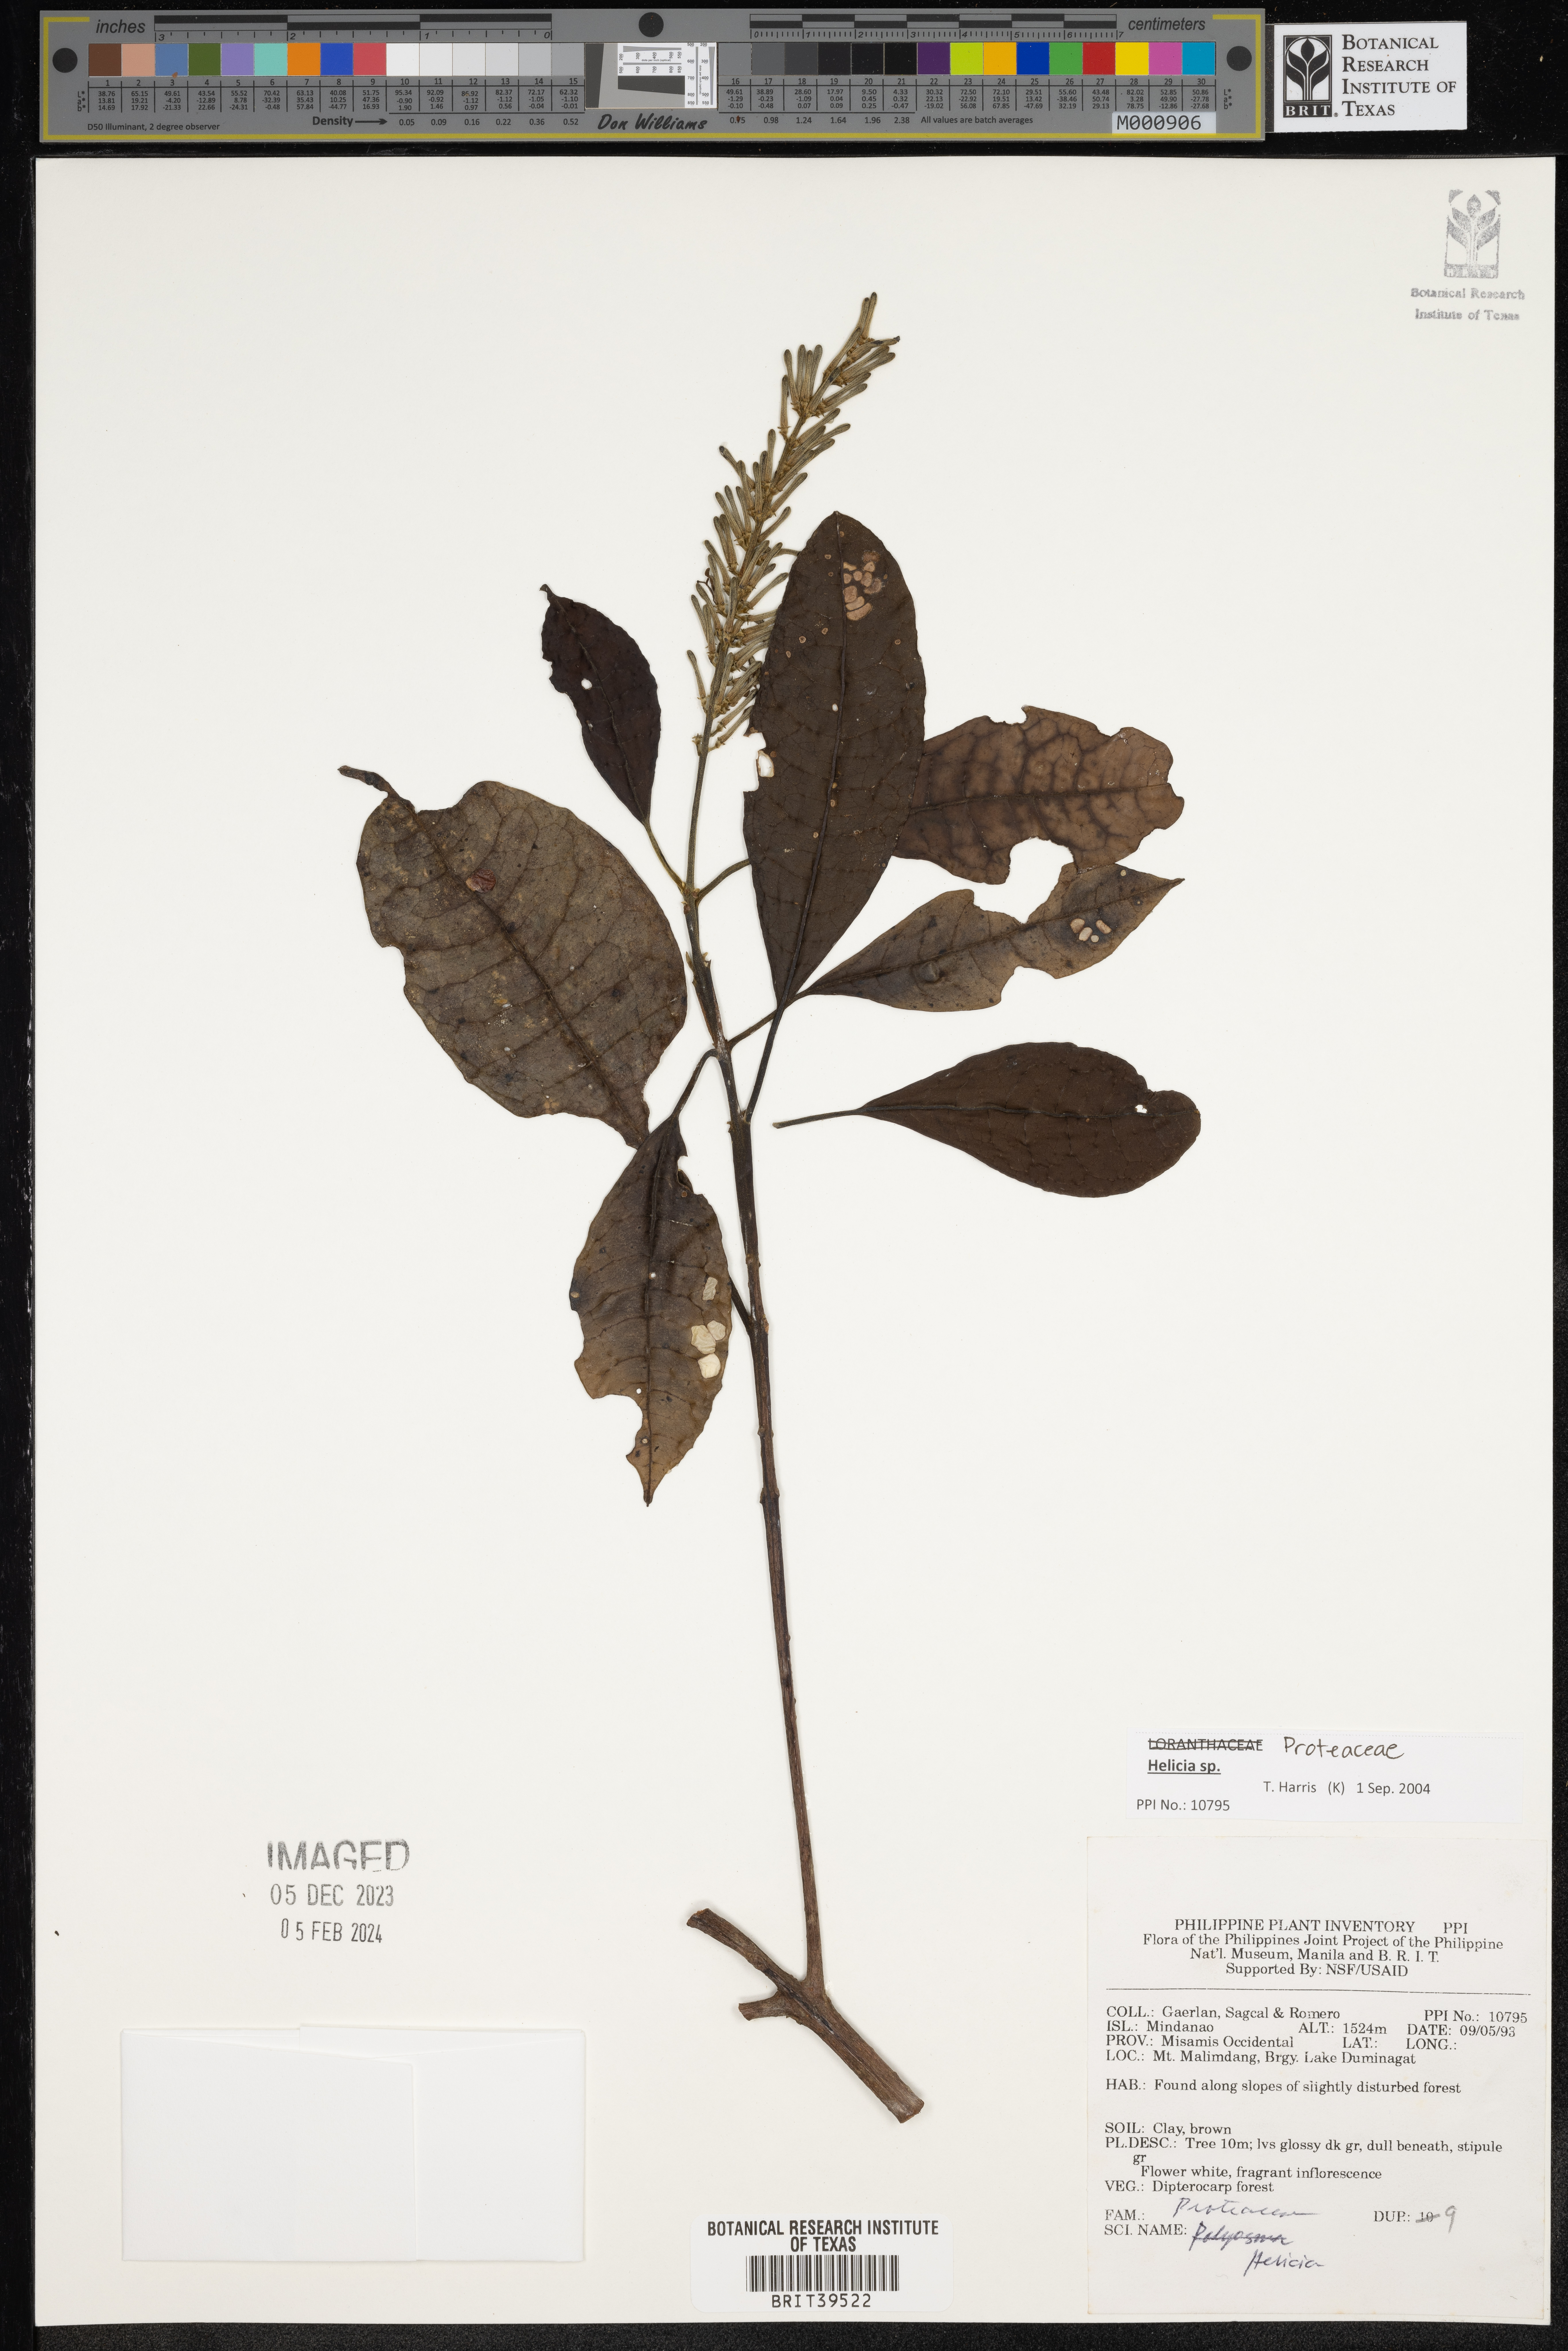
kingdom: Plantae
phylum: Tracheophyta
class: Magnoliopsida
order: Proteales
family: Proteaceae
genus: Helicia
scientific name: Helicia
